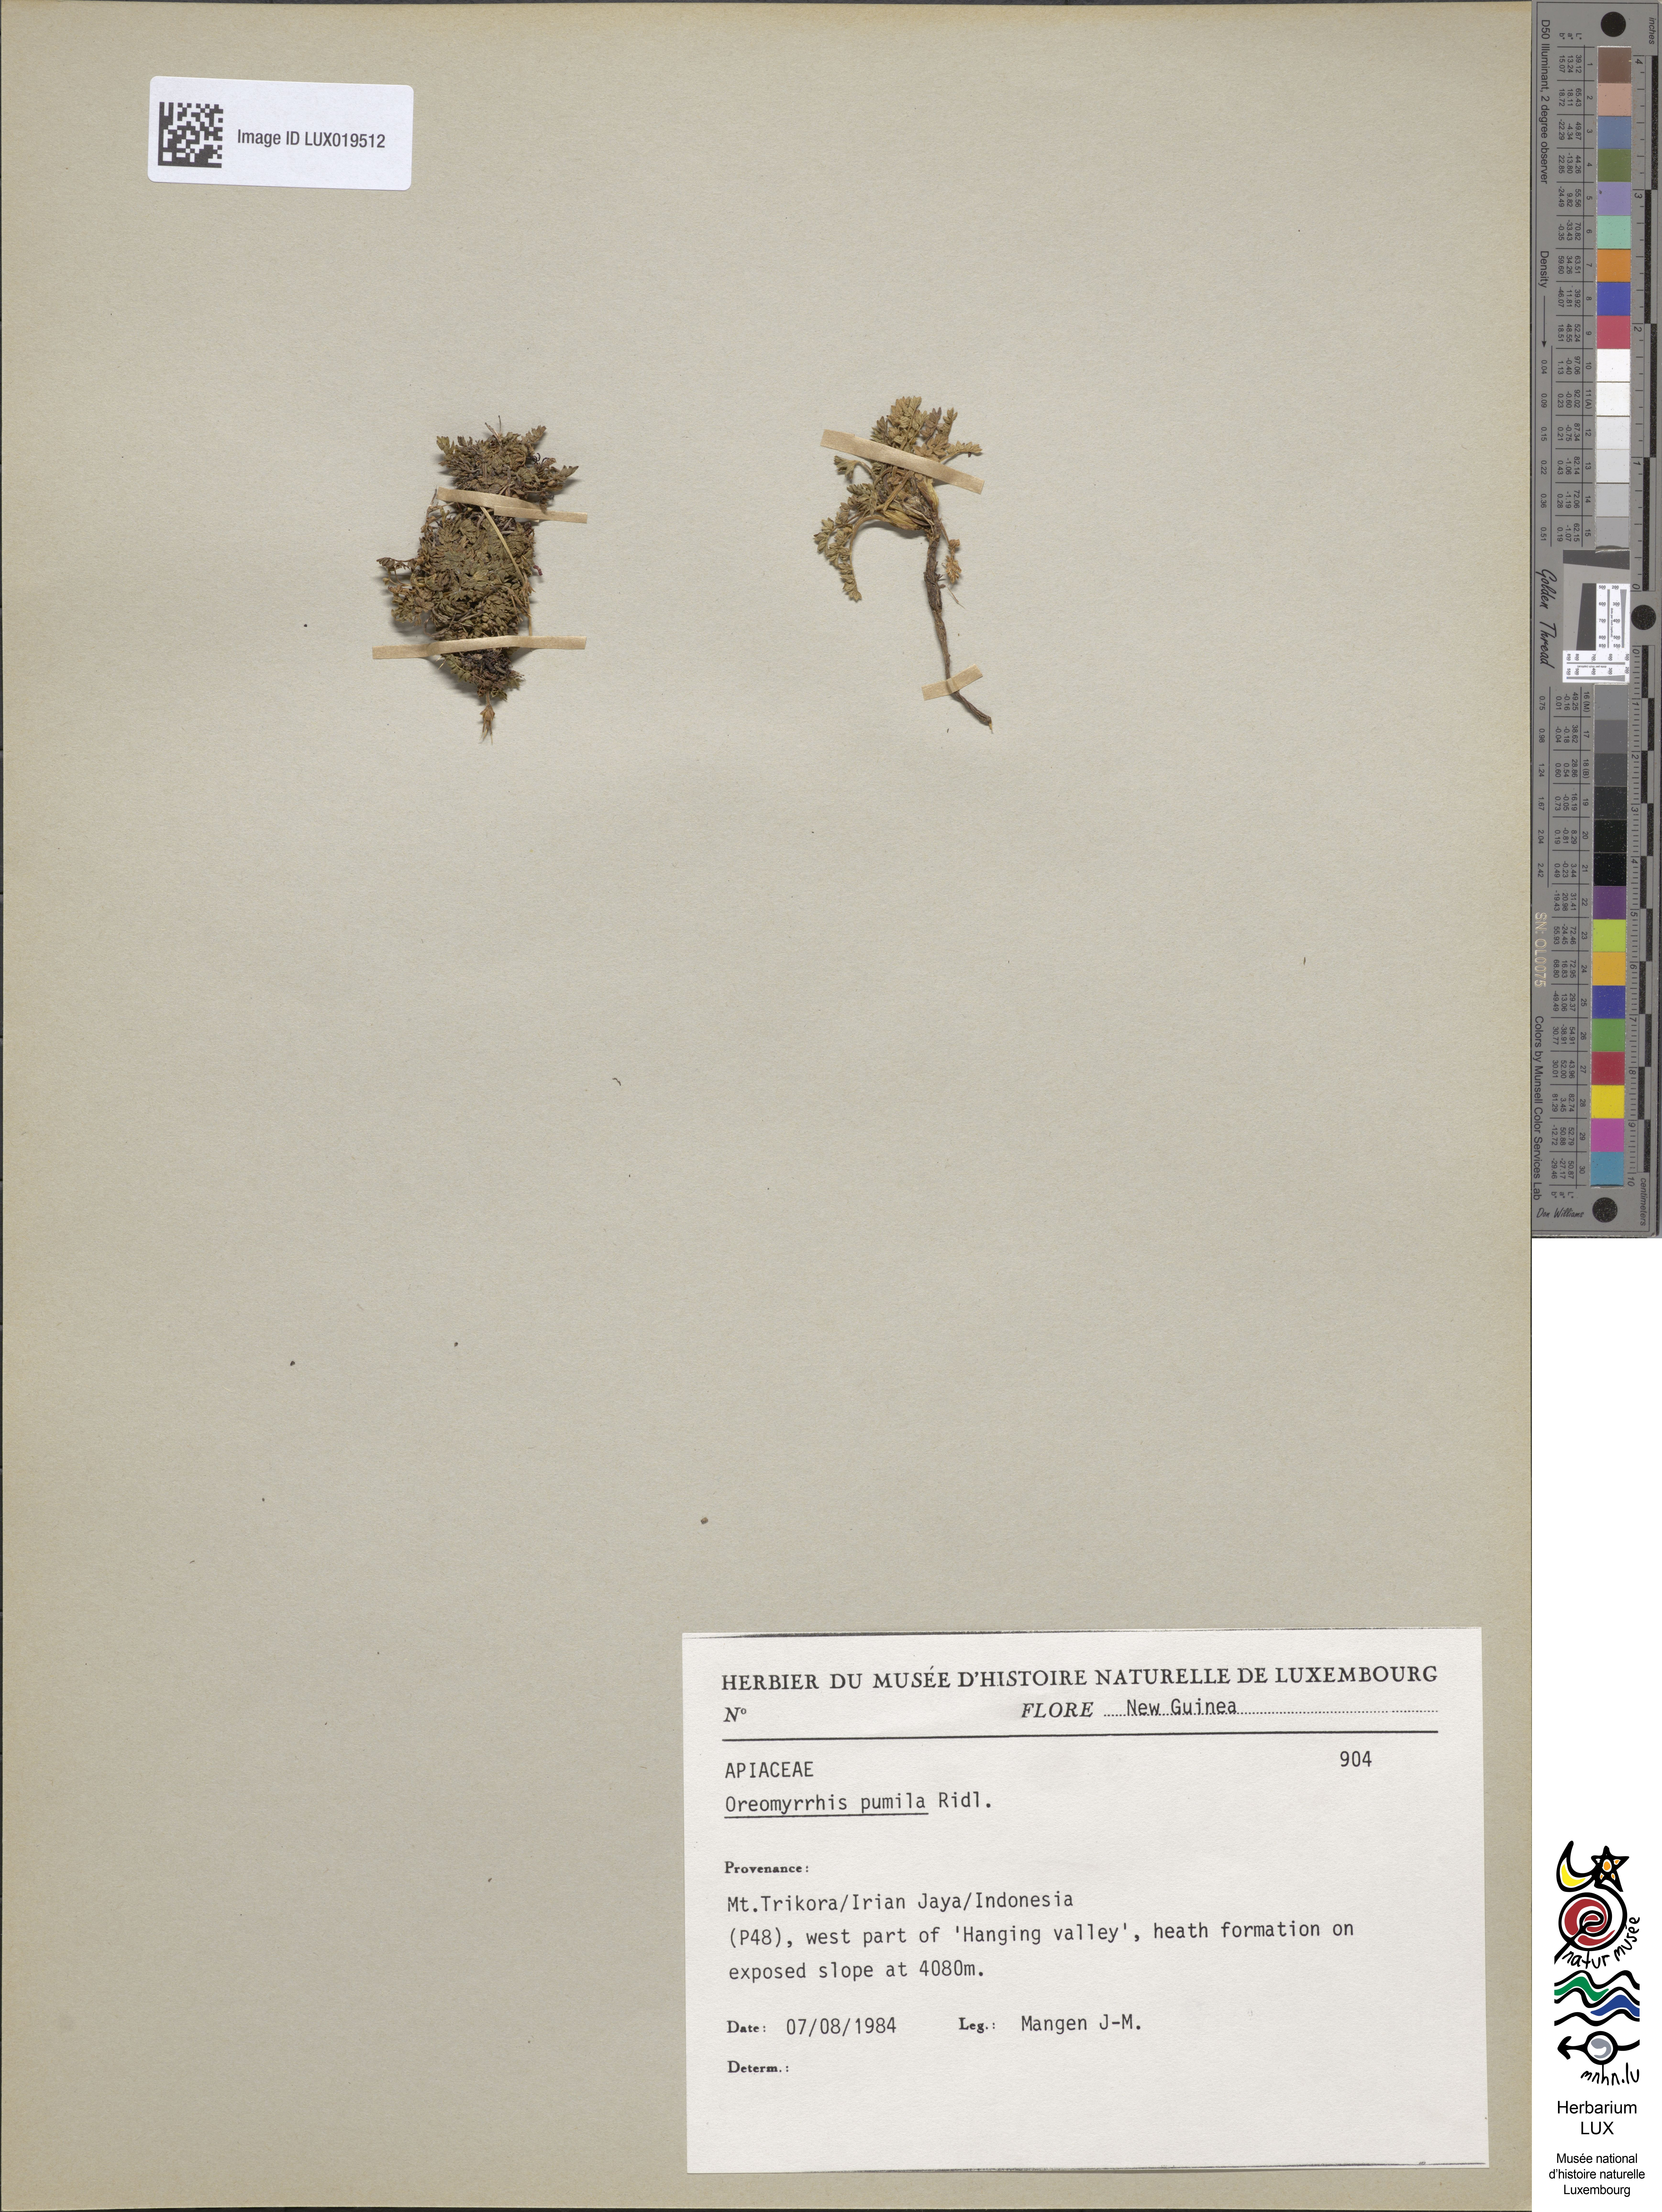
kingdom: Plantae
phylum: Tracheophyta
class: Magnoliopsida
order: Apiales
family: Apiaceae
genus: Chaerophyllum
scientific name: Chaerophyllum pumilum
